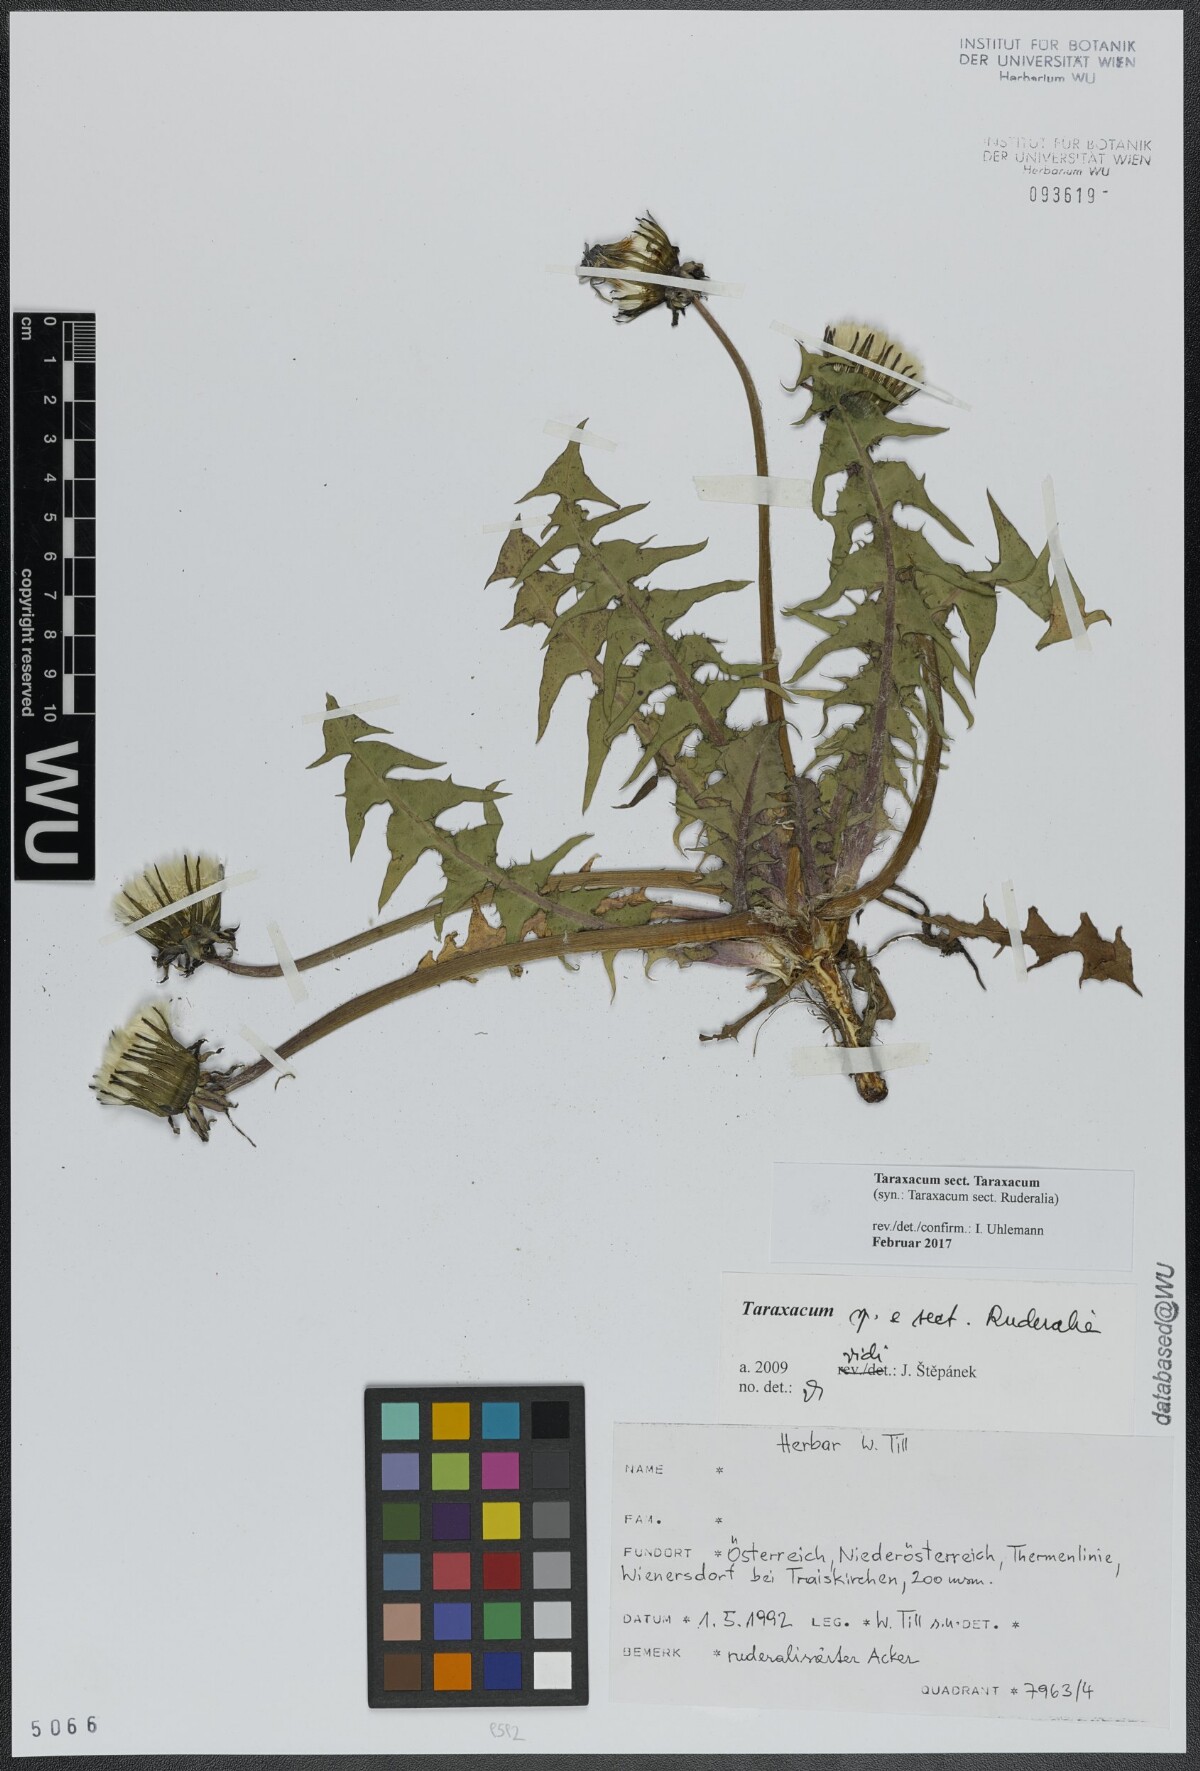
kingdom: Plantae
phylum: Tracheophyta
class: Magnoliopsida
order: Asterales
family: Asteraceae
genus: Taraxacum
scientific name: Taraxacum
